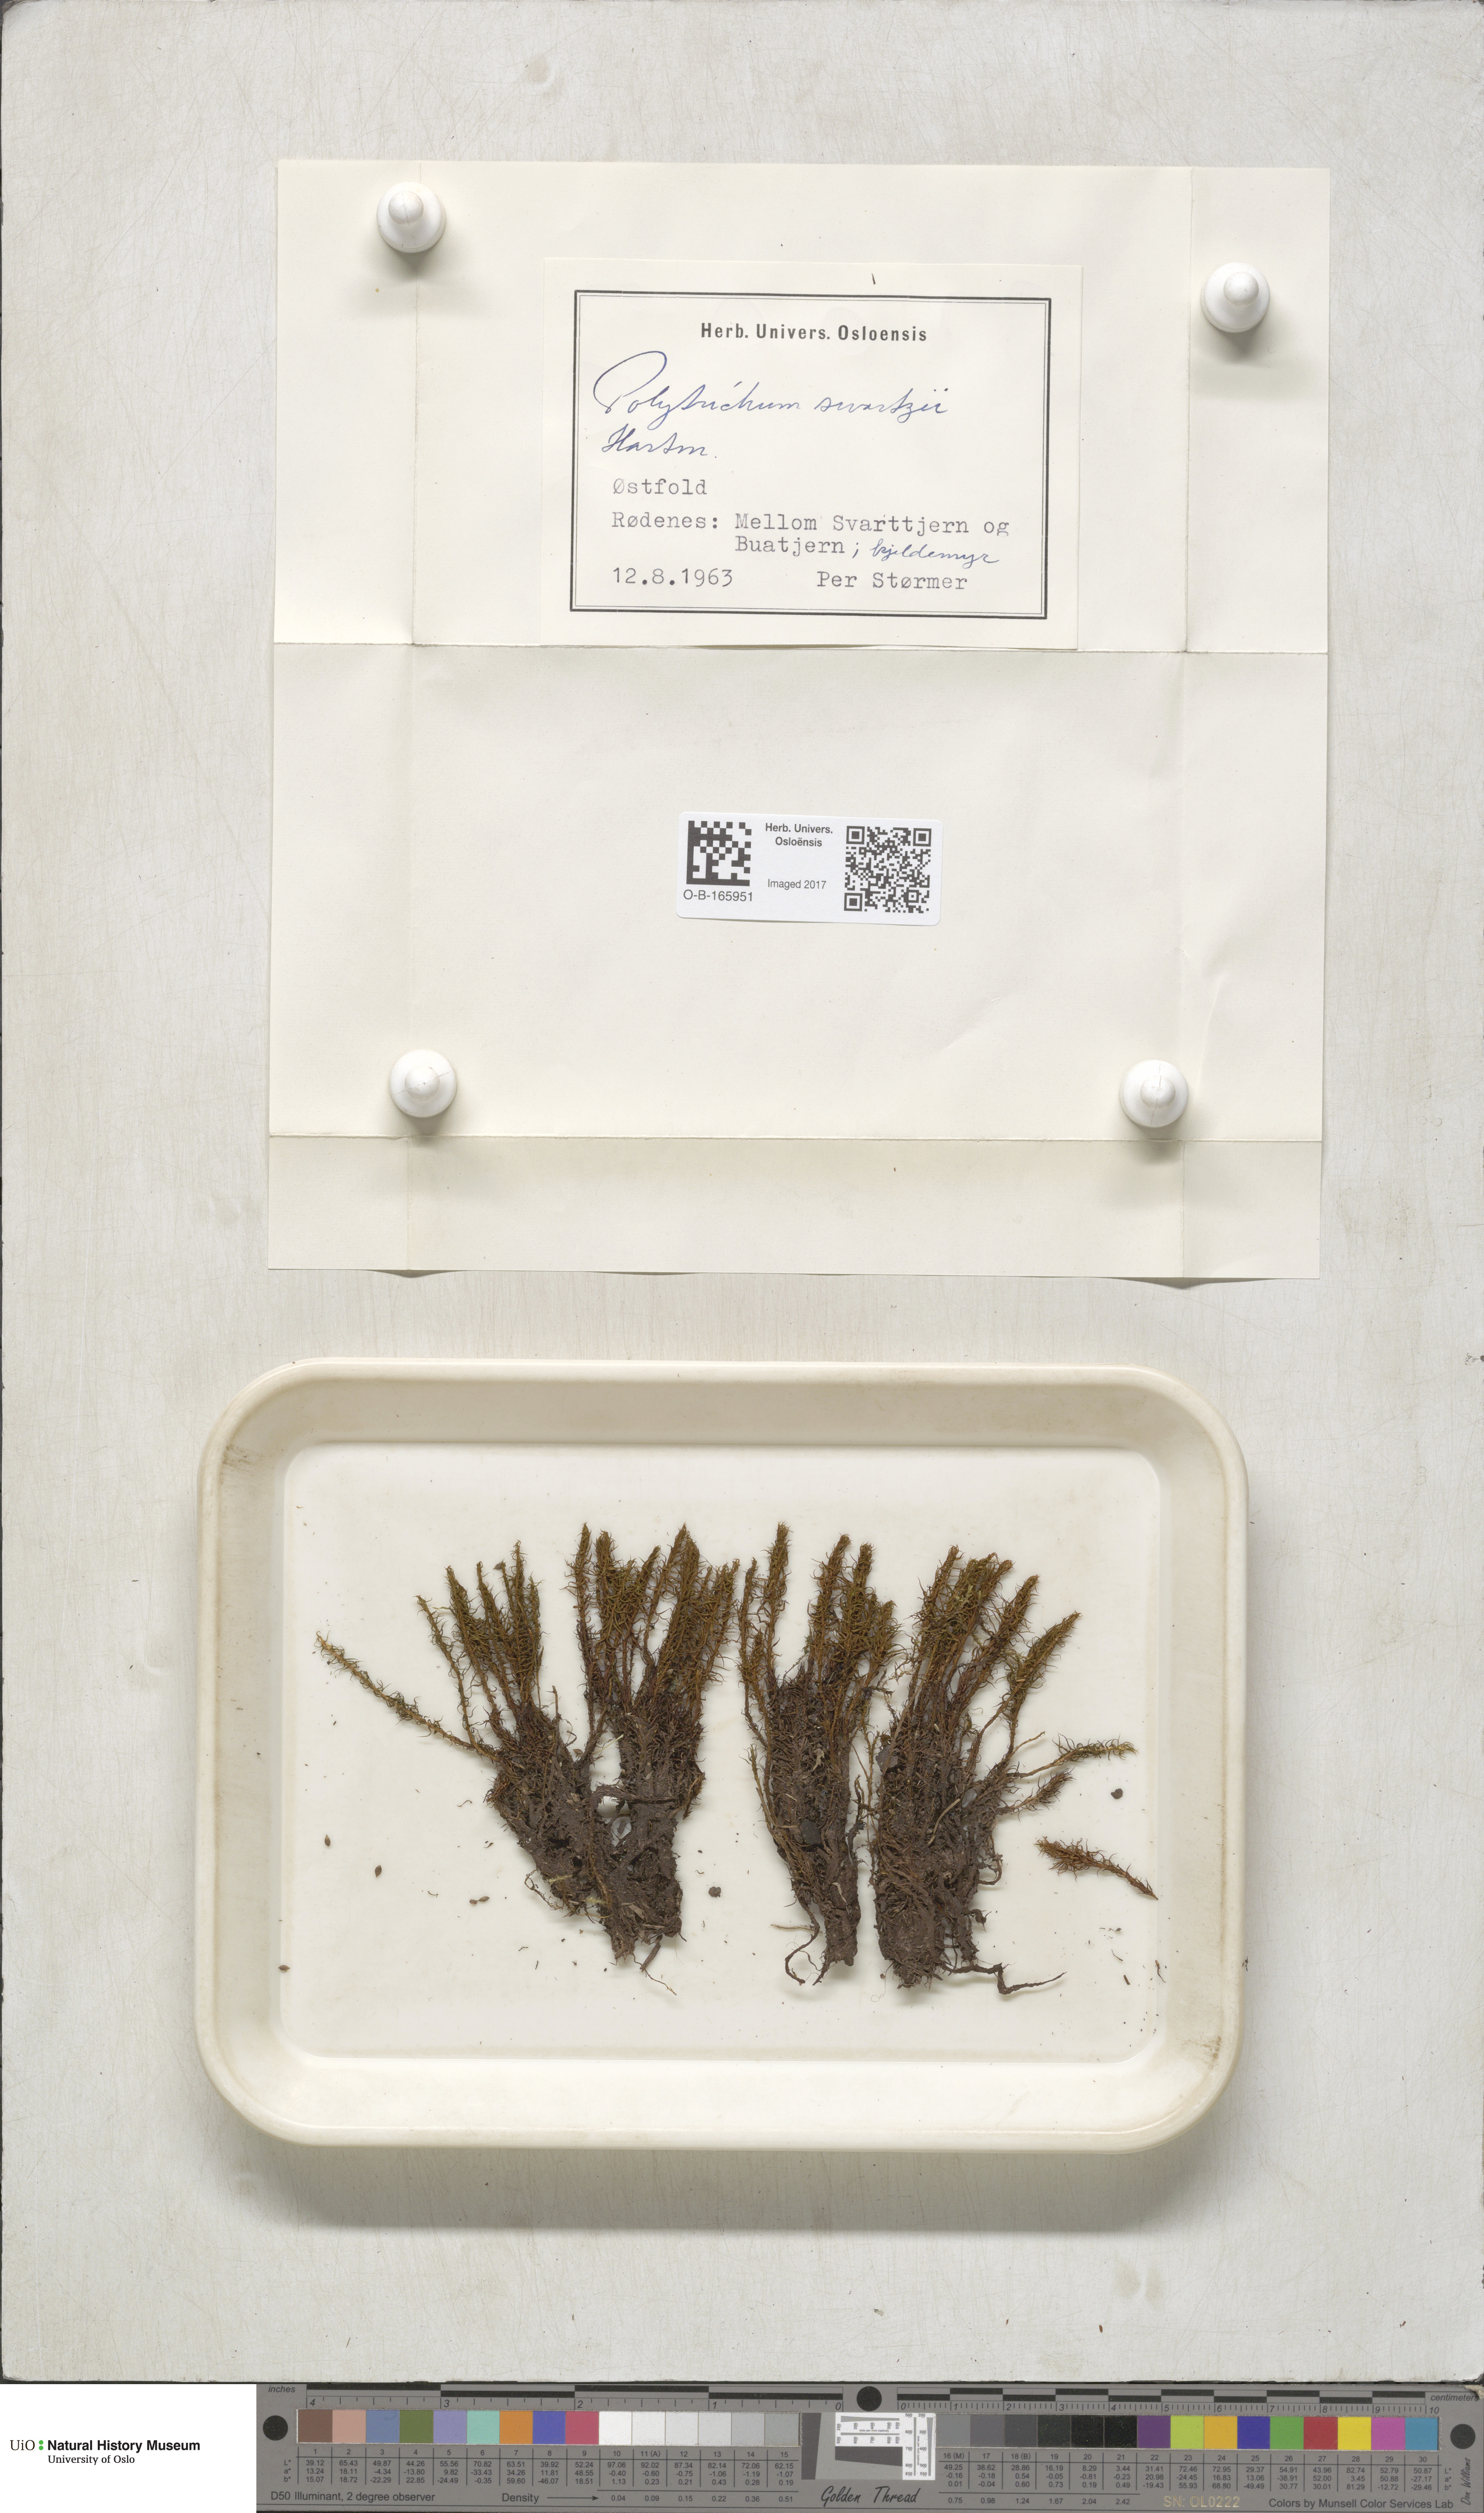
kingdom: Plantae
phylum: Bryophyta
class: Polytrichopsida
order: Polytrichales
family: Polytrichaceae
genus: Polytrichum
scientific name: Polytrichum swartzii
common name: Swartz's haircap moss
